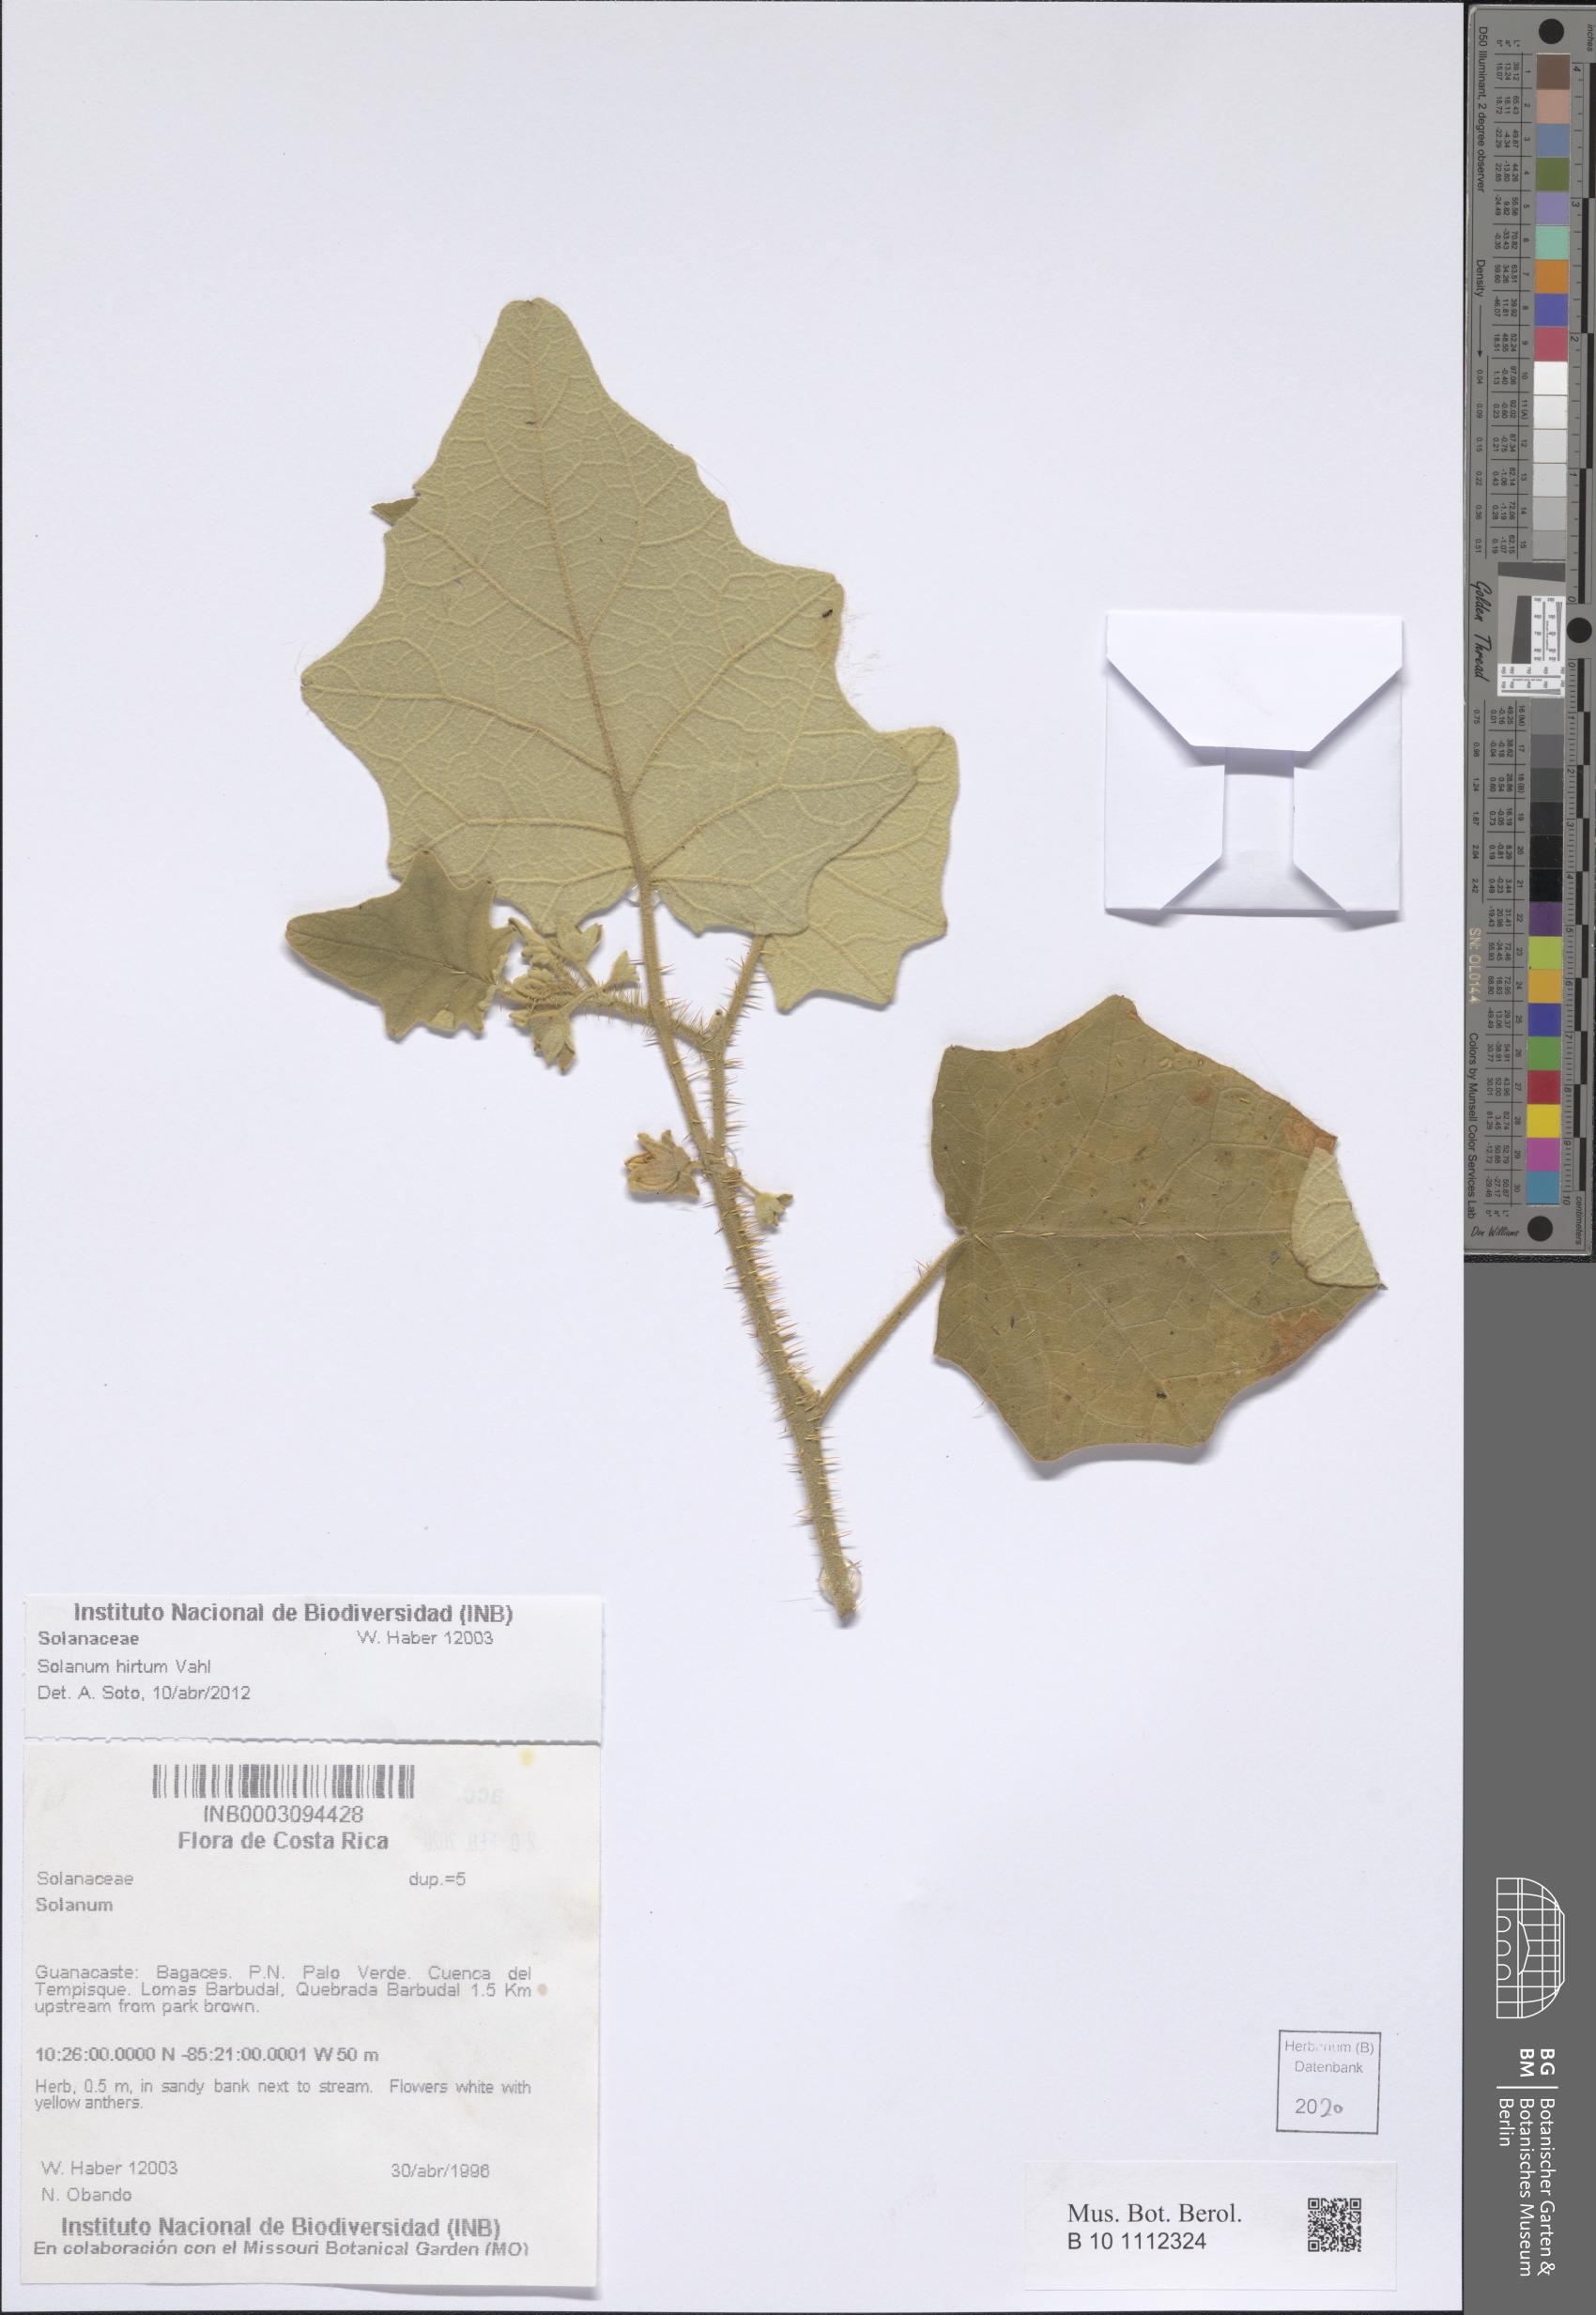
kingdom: Plantae
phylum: Tracheophyta
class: Magnoliopsida
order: Solanales
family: Solanaceae
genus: Solanum
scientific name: Solanum hirtum
